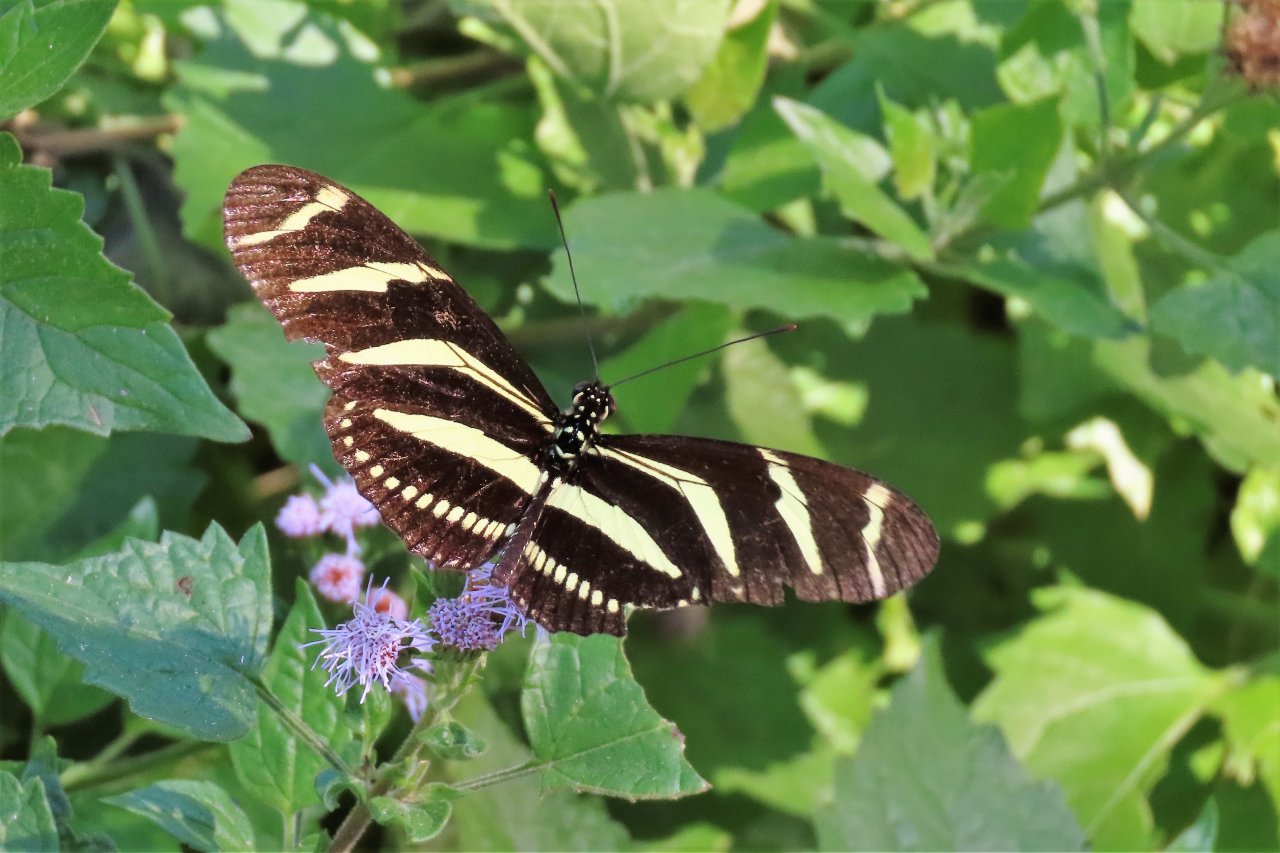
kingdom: Animalia
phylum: Arthropoda
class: Insecta
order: Lepidoptera
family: Nymphalidae
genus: Heliconius
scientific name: Heliconius charithonia
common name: Zebra Longwing
